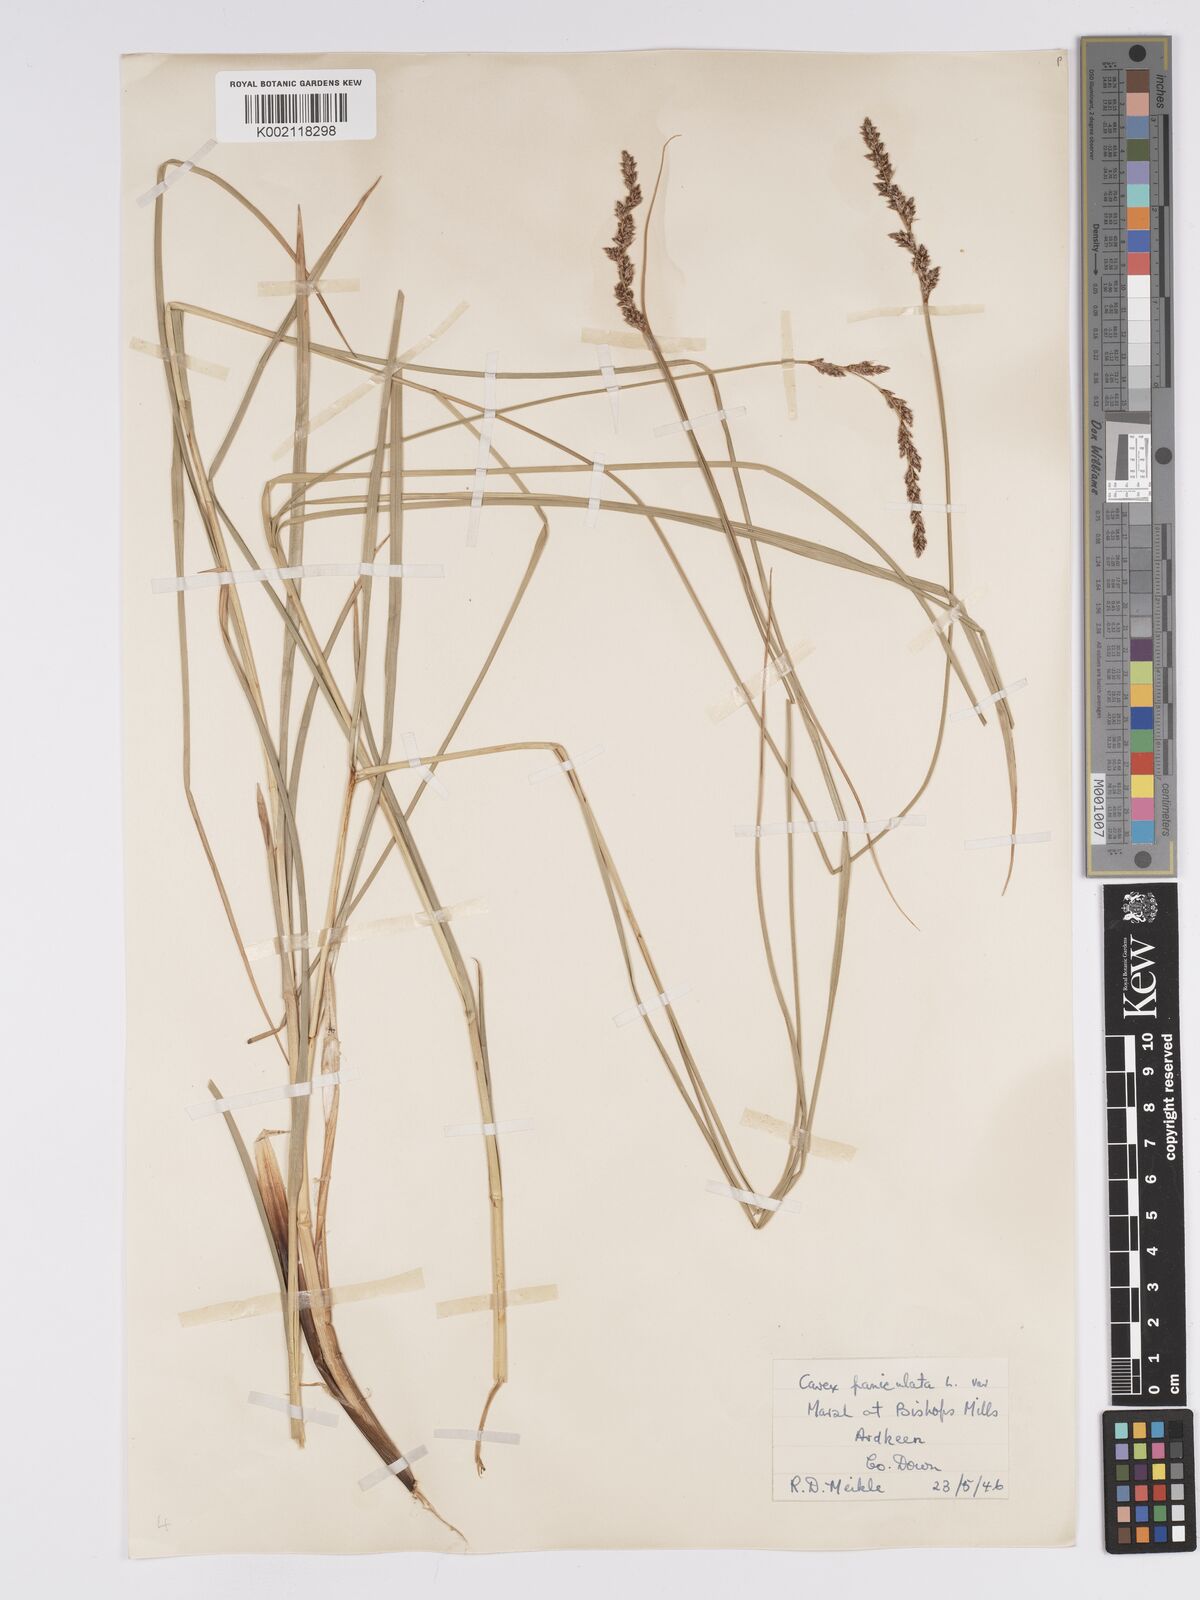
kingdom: Plantae
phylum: Tracheophyta
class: Liliopsida
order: Poales
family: Cyperaceae
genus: Carex
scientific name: Carex paniculata
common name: Greater tussock-sedge
